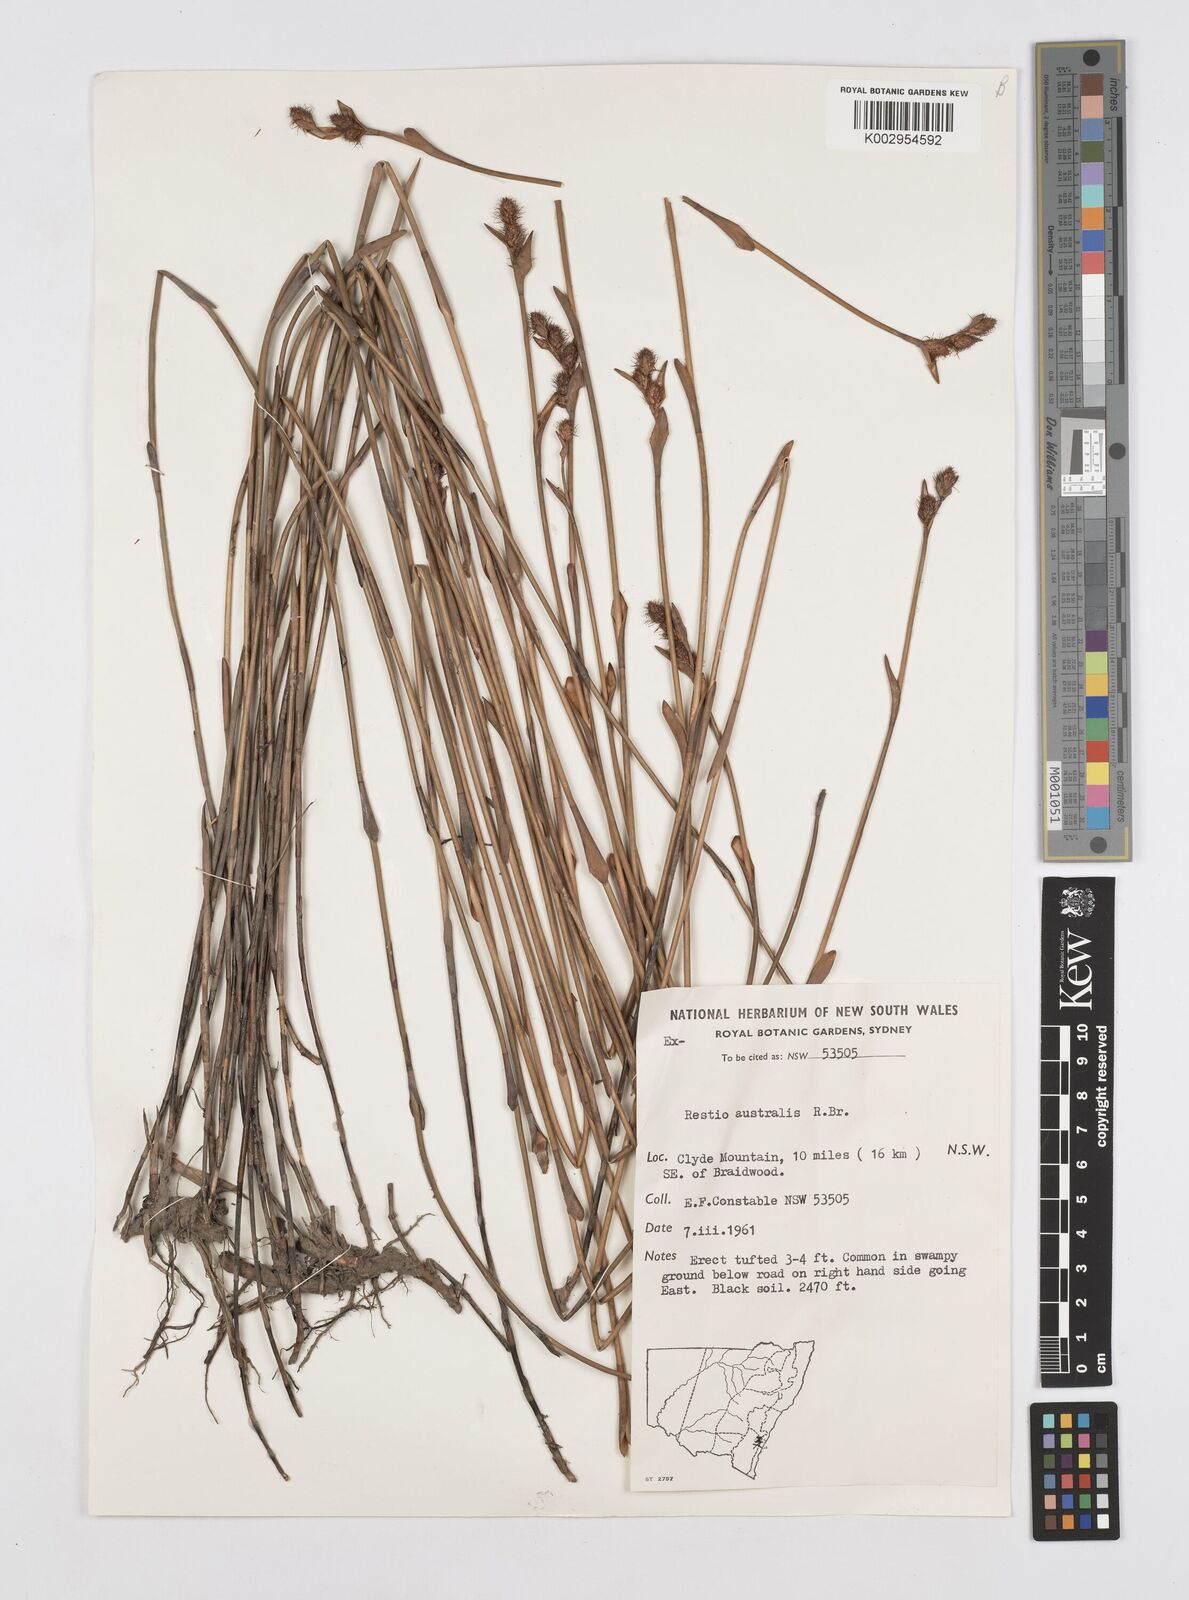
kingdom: Plantae
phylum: Tracheophyta
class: Liliopsida
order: Poales
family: Restionaceae
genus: Baloskion
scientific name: Baloskion australe
